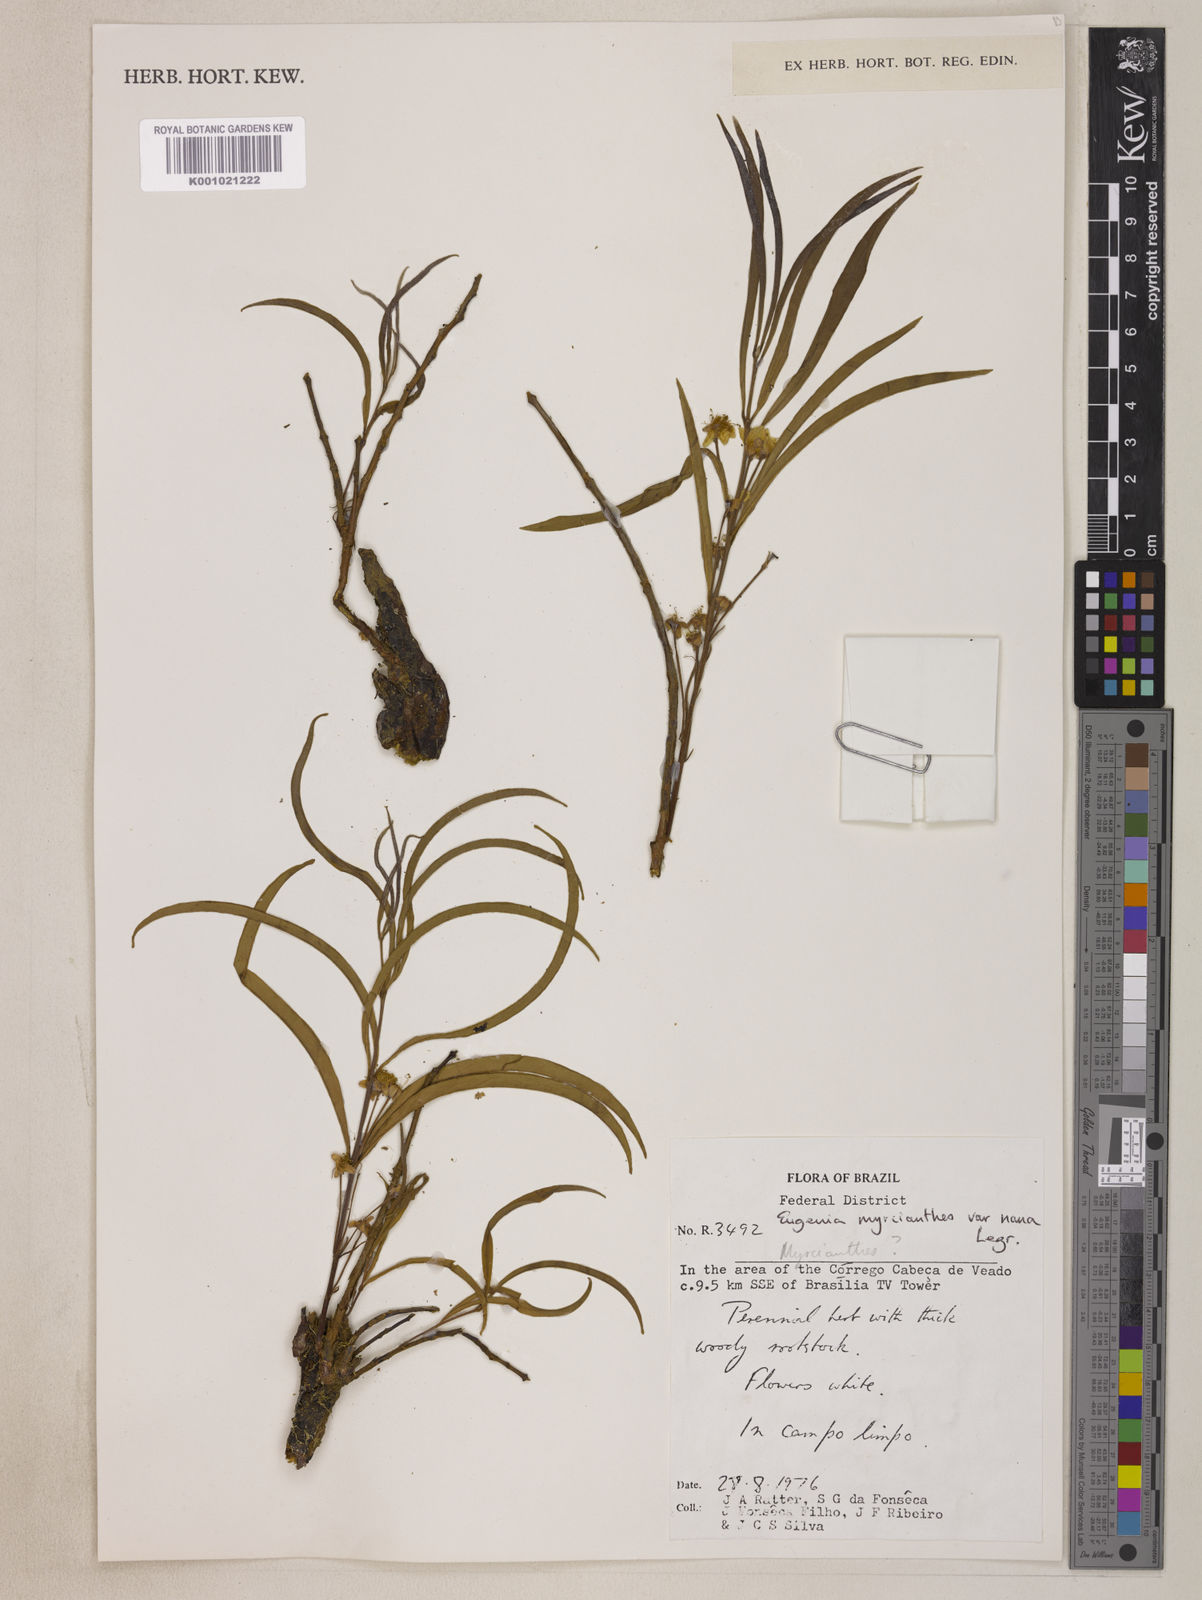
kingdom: Plantae
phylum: Tracheophyta
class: Magnoliopsida
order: Myrtales
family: Myrtaceae
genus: Eugenia
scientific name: Eugenia anomala
